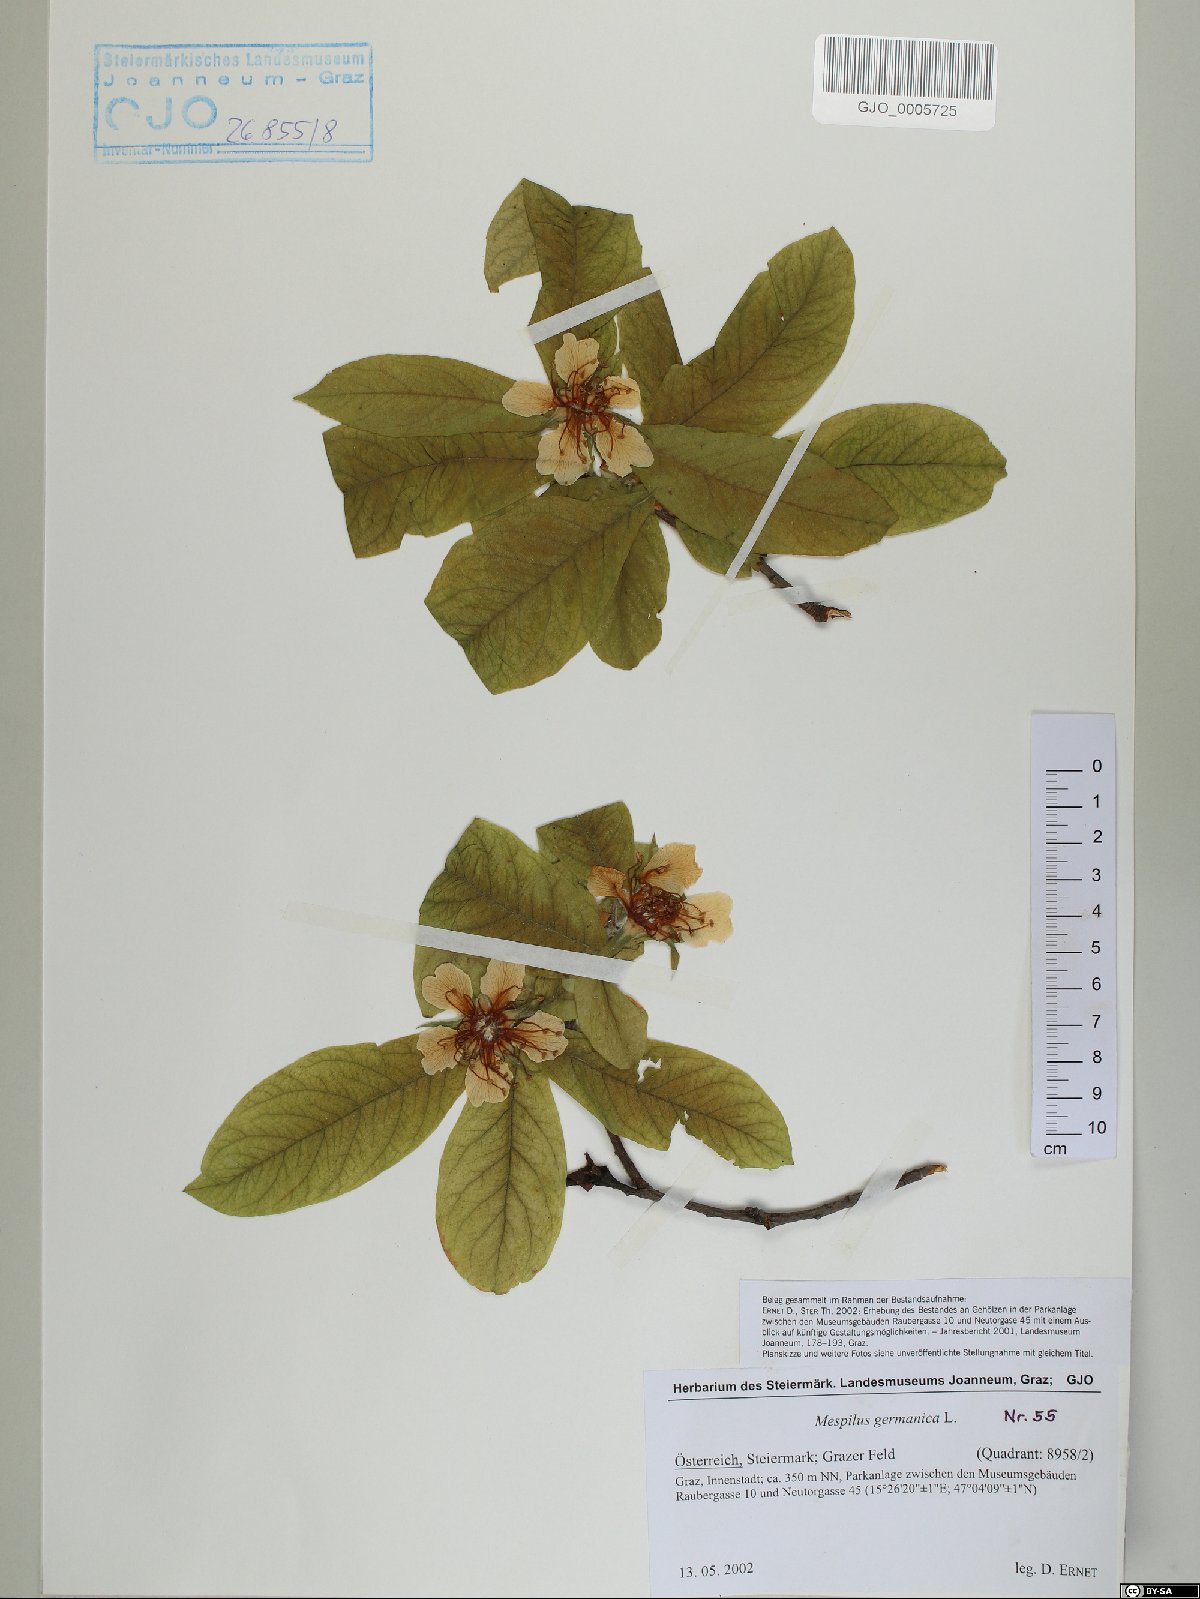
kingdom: Plantae
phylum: Tracheophyta
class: Magnoliopsida
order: Rosales
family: Rosaceae
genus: Mespilus
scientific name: Mespilus germanica
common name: Medlar
